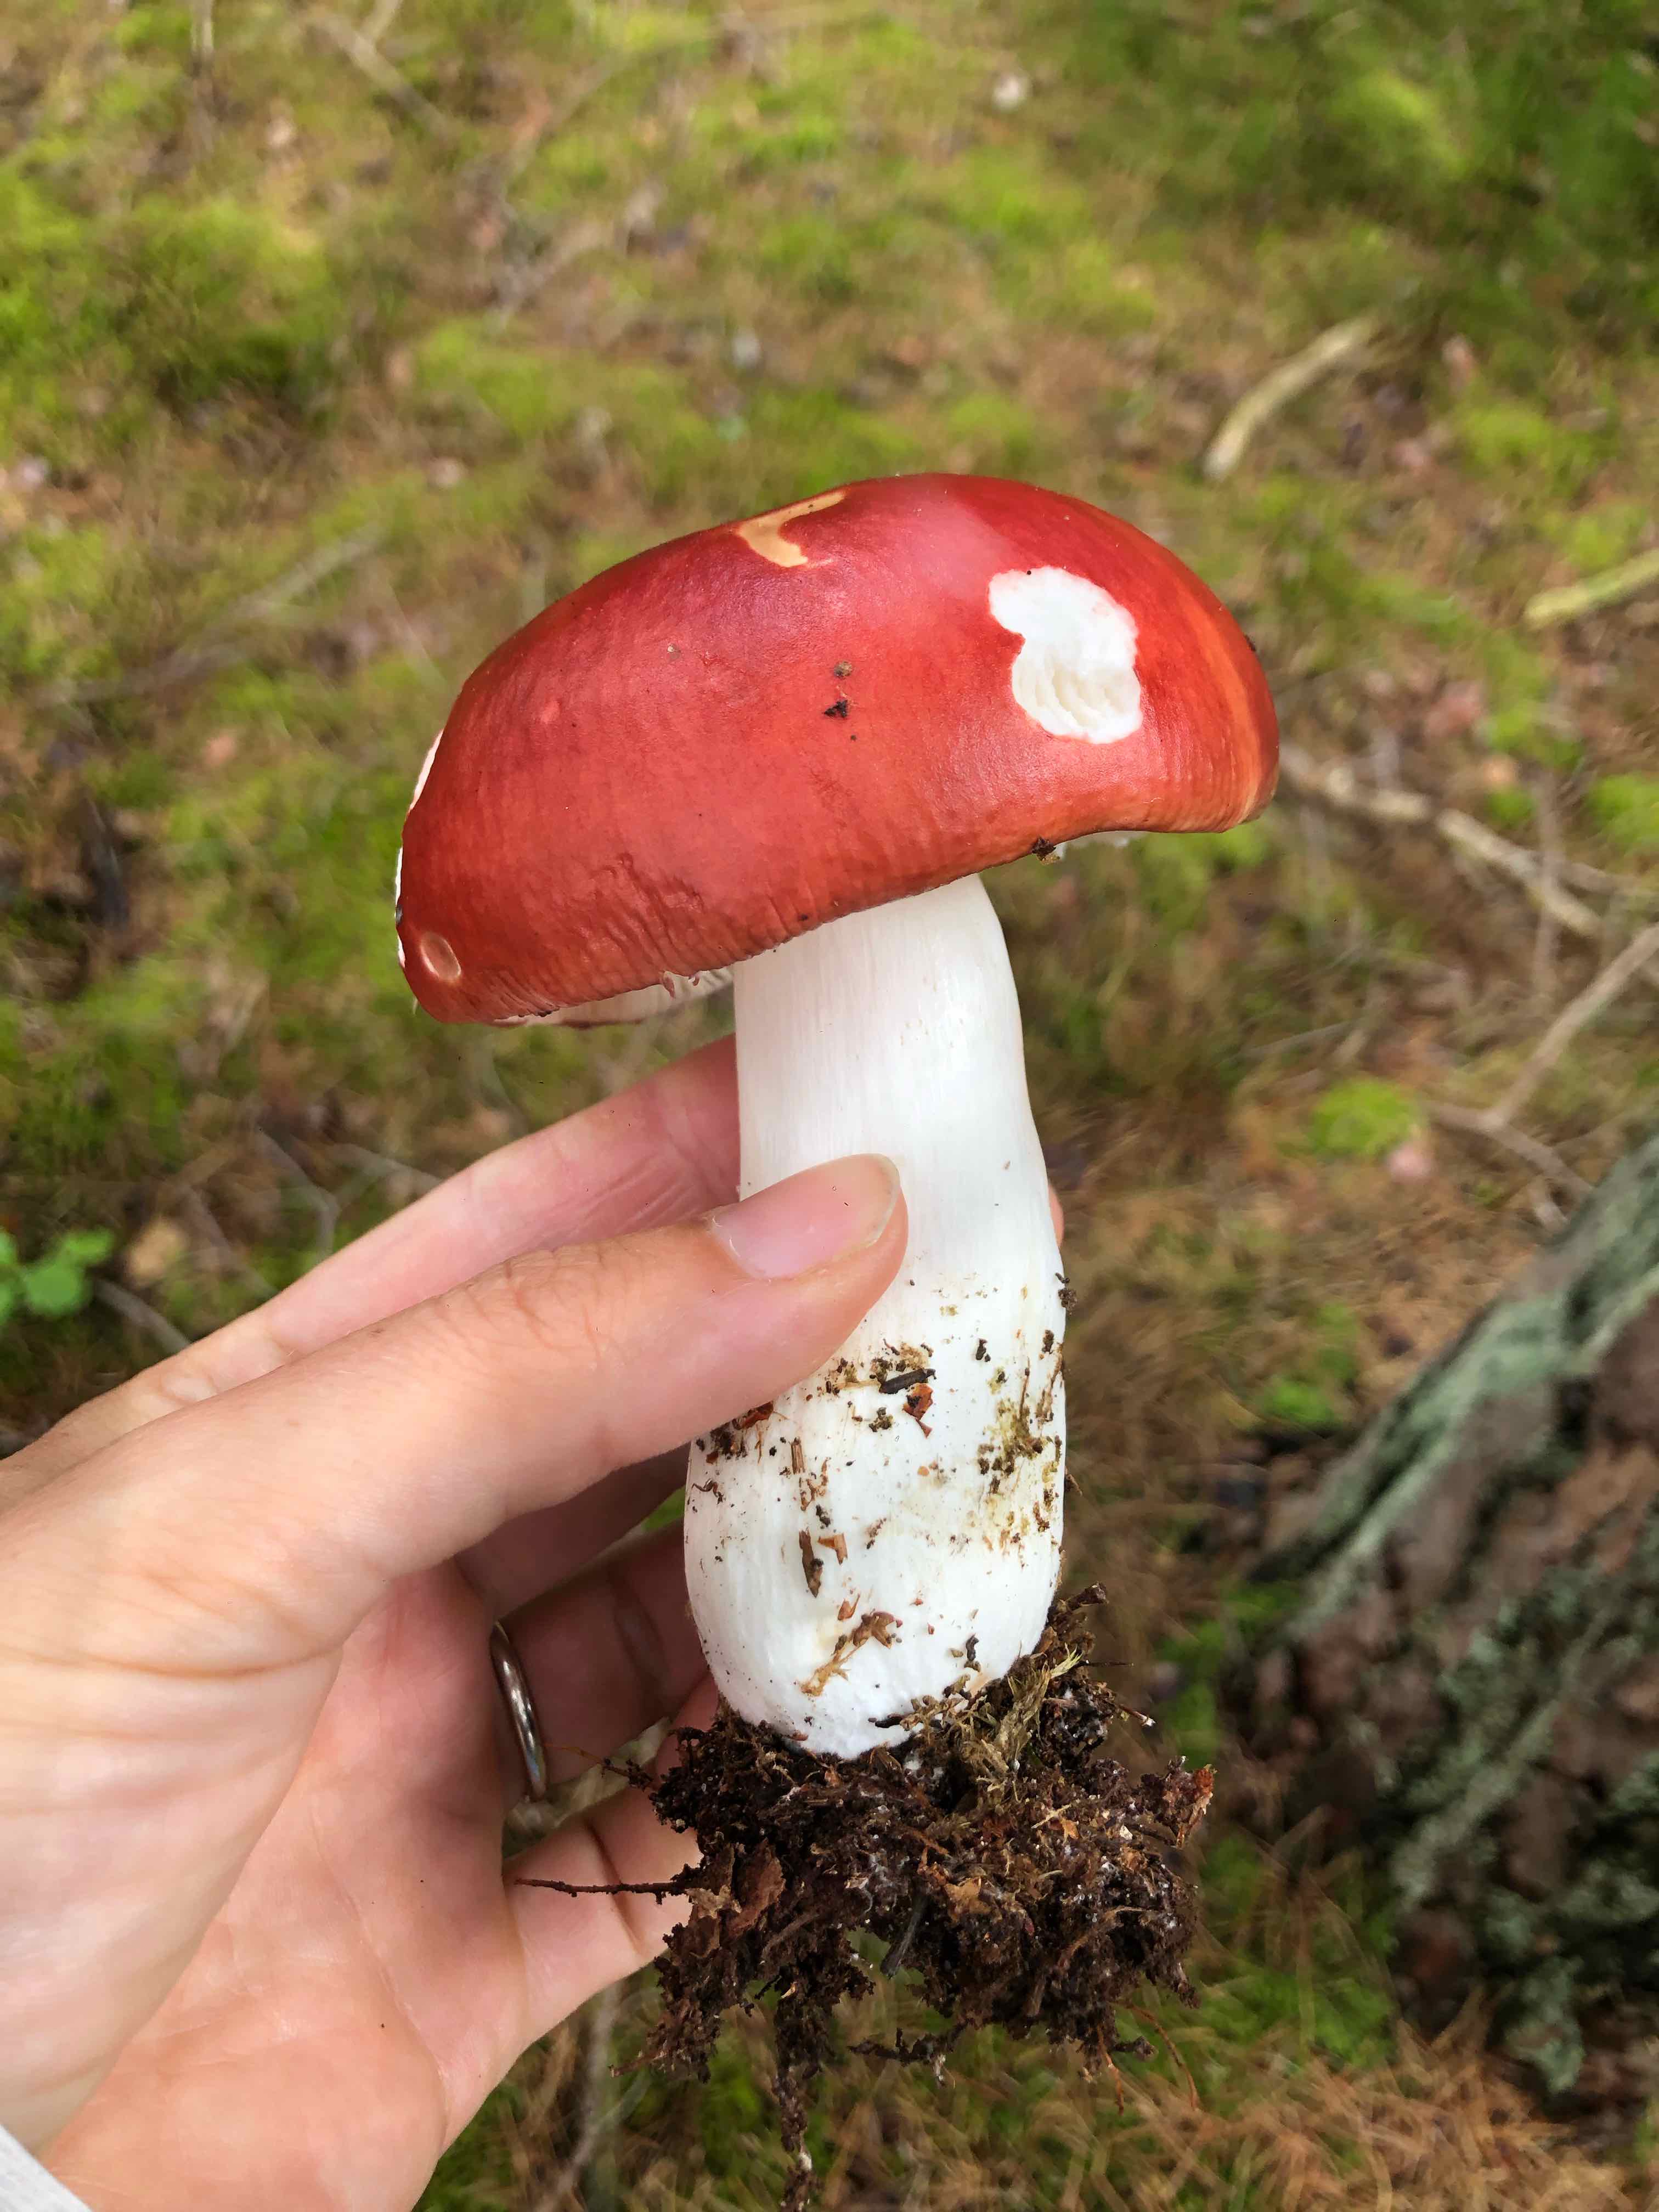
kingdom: Fungi
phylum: Basidiomycota
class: Agaricomycetes
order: Russulales
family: Russulaceae
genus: Russula
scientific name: Russula paludosa
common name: prægtig skørhat
